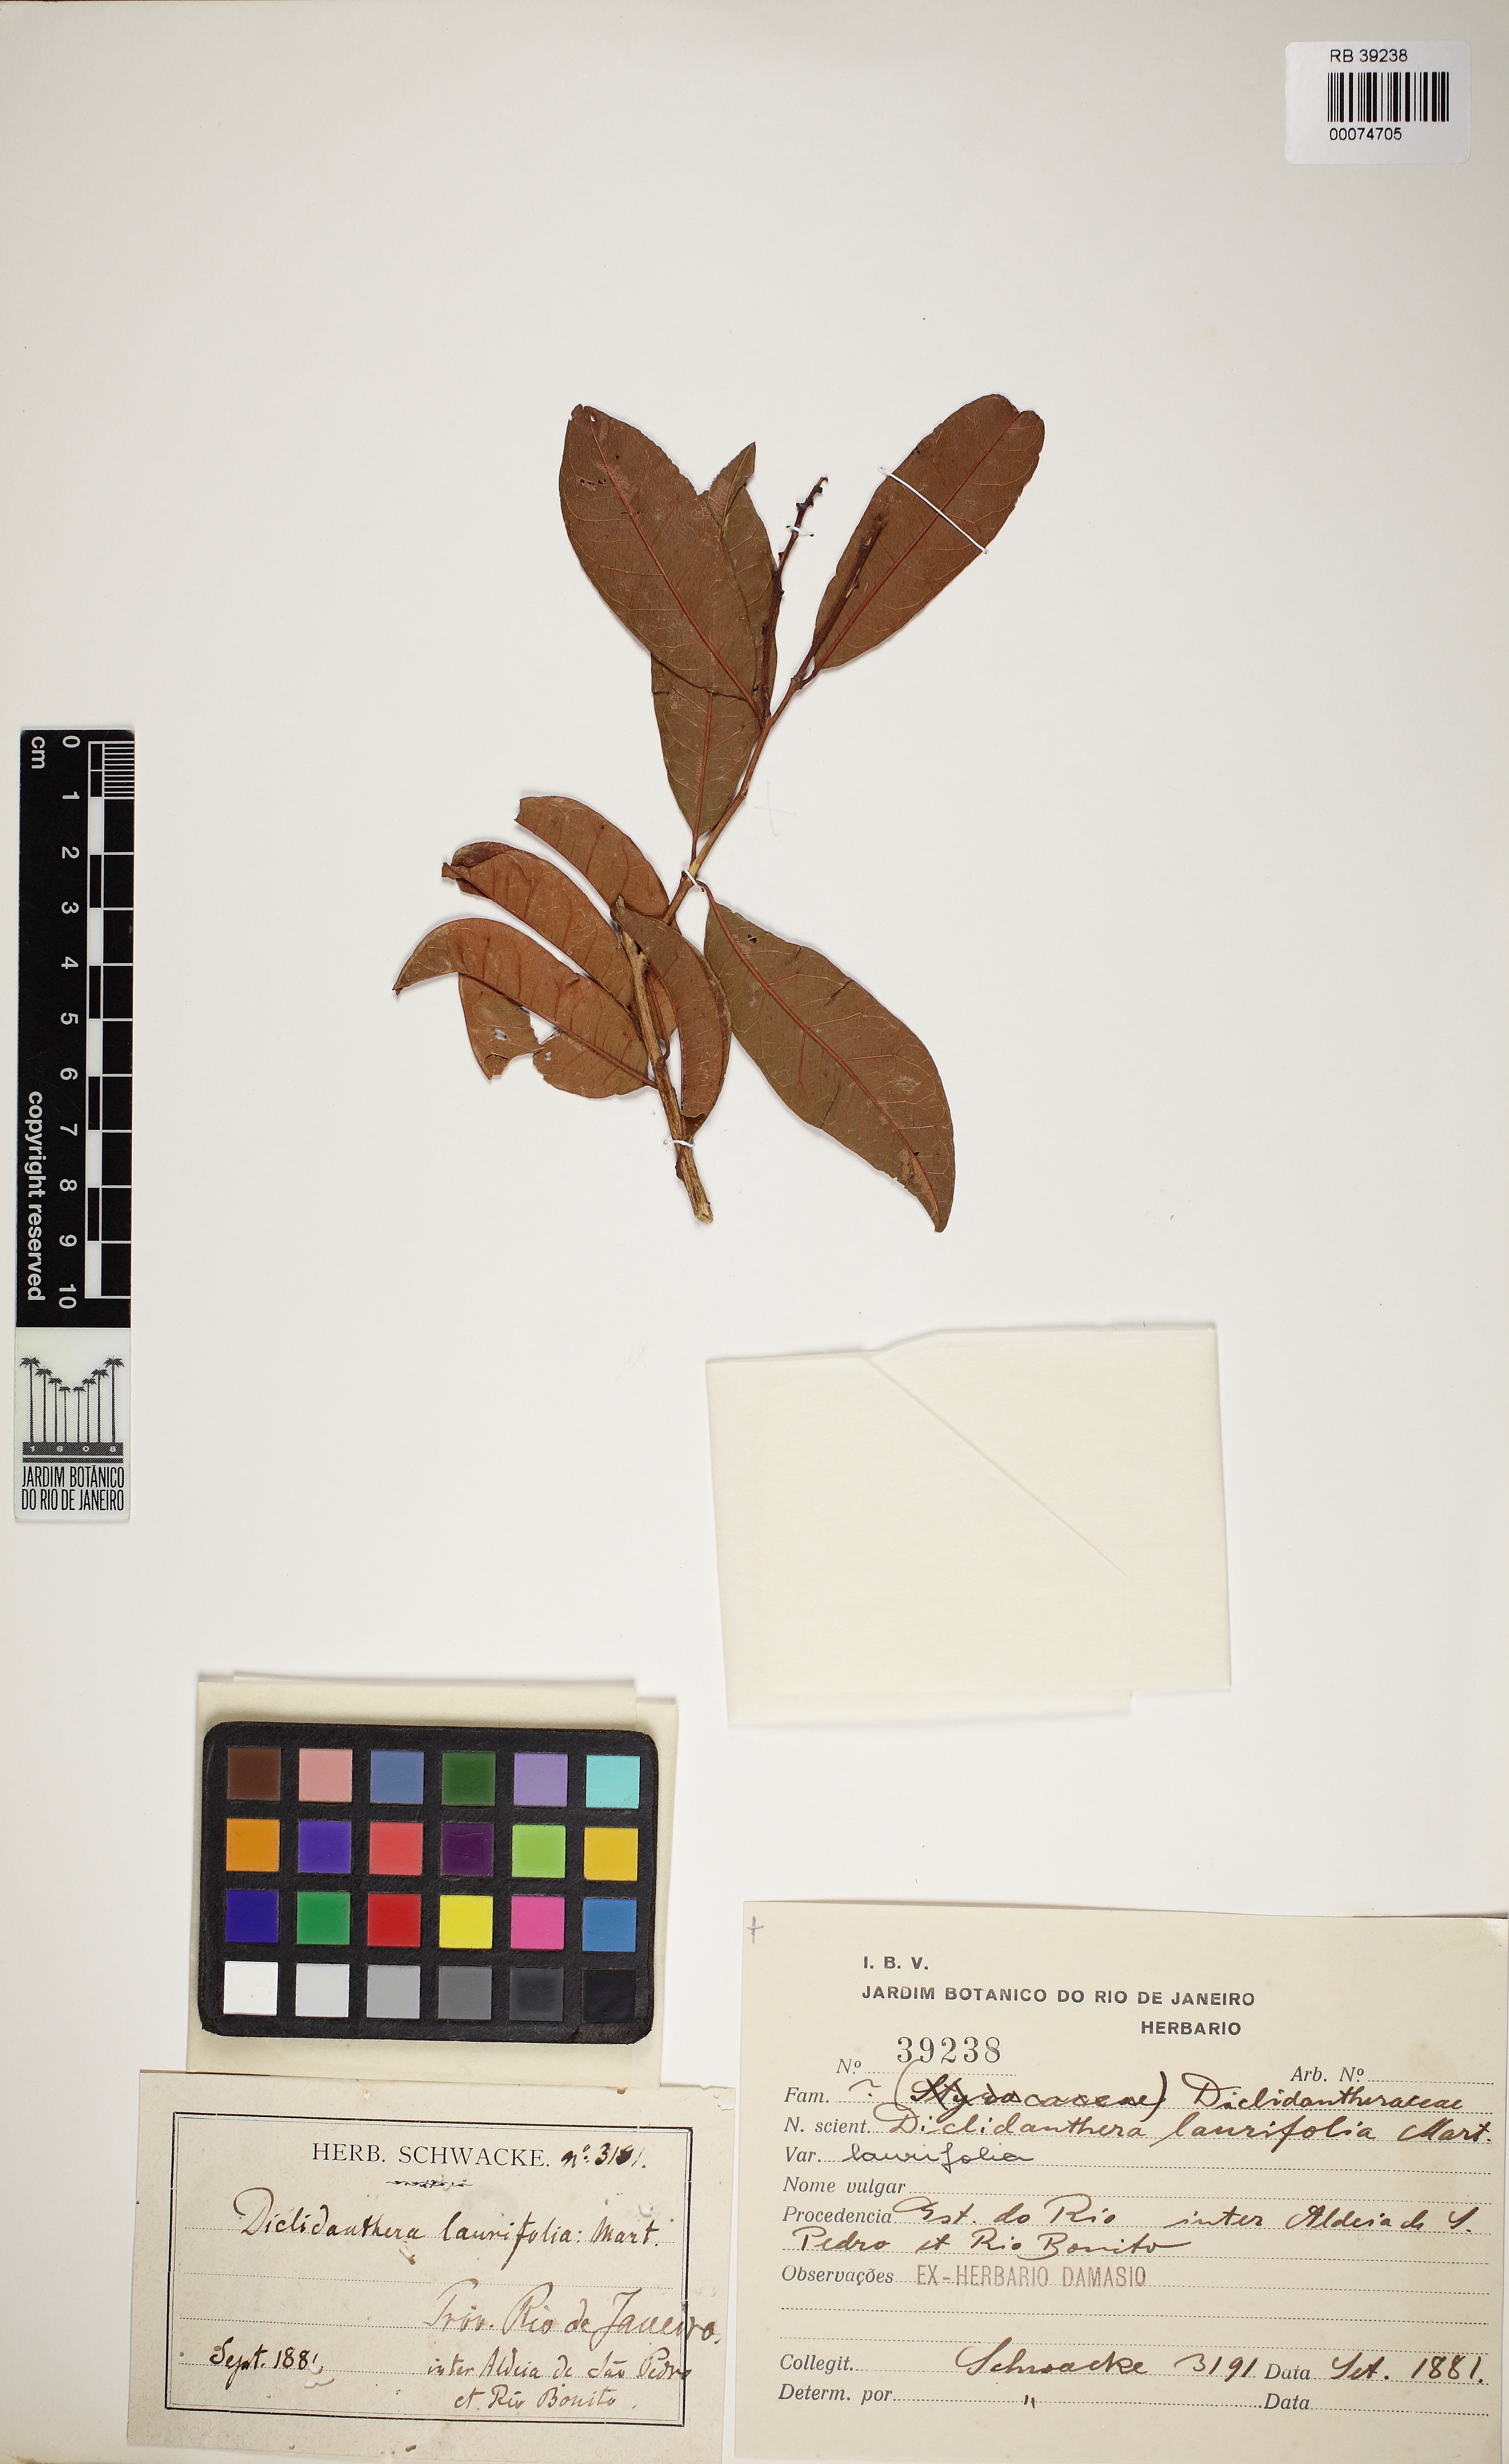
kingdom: Plantae
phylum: Tracheophyta
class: Magnoliopsida
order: Fabales
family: Polygalaceae
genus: Diclidanthera
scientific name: Diclidanthera laurifolia
